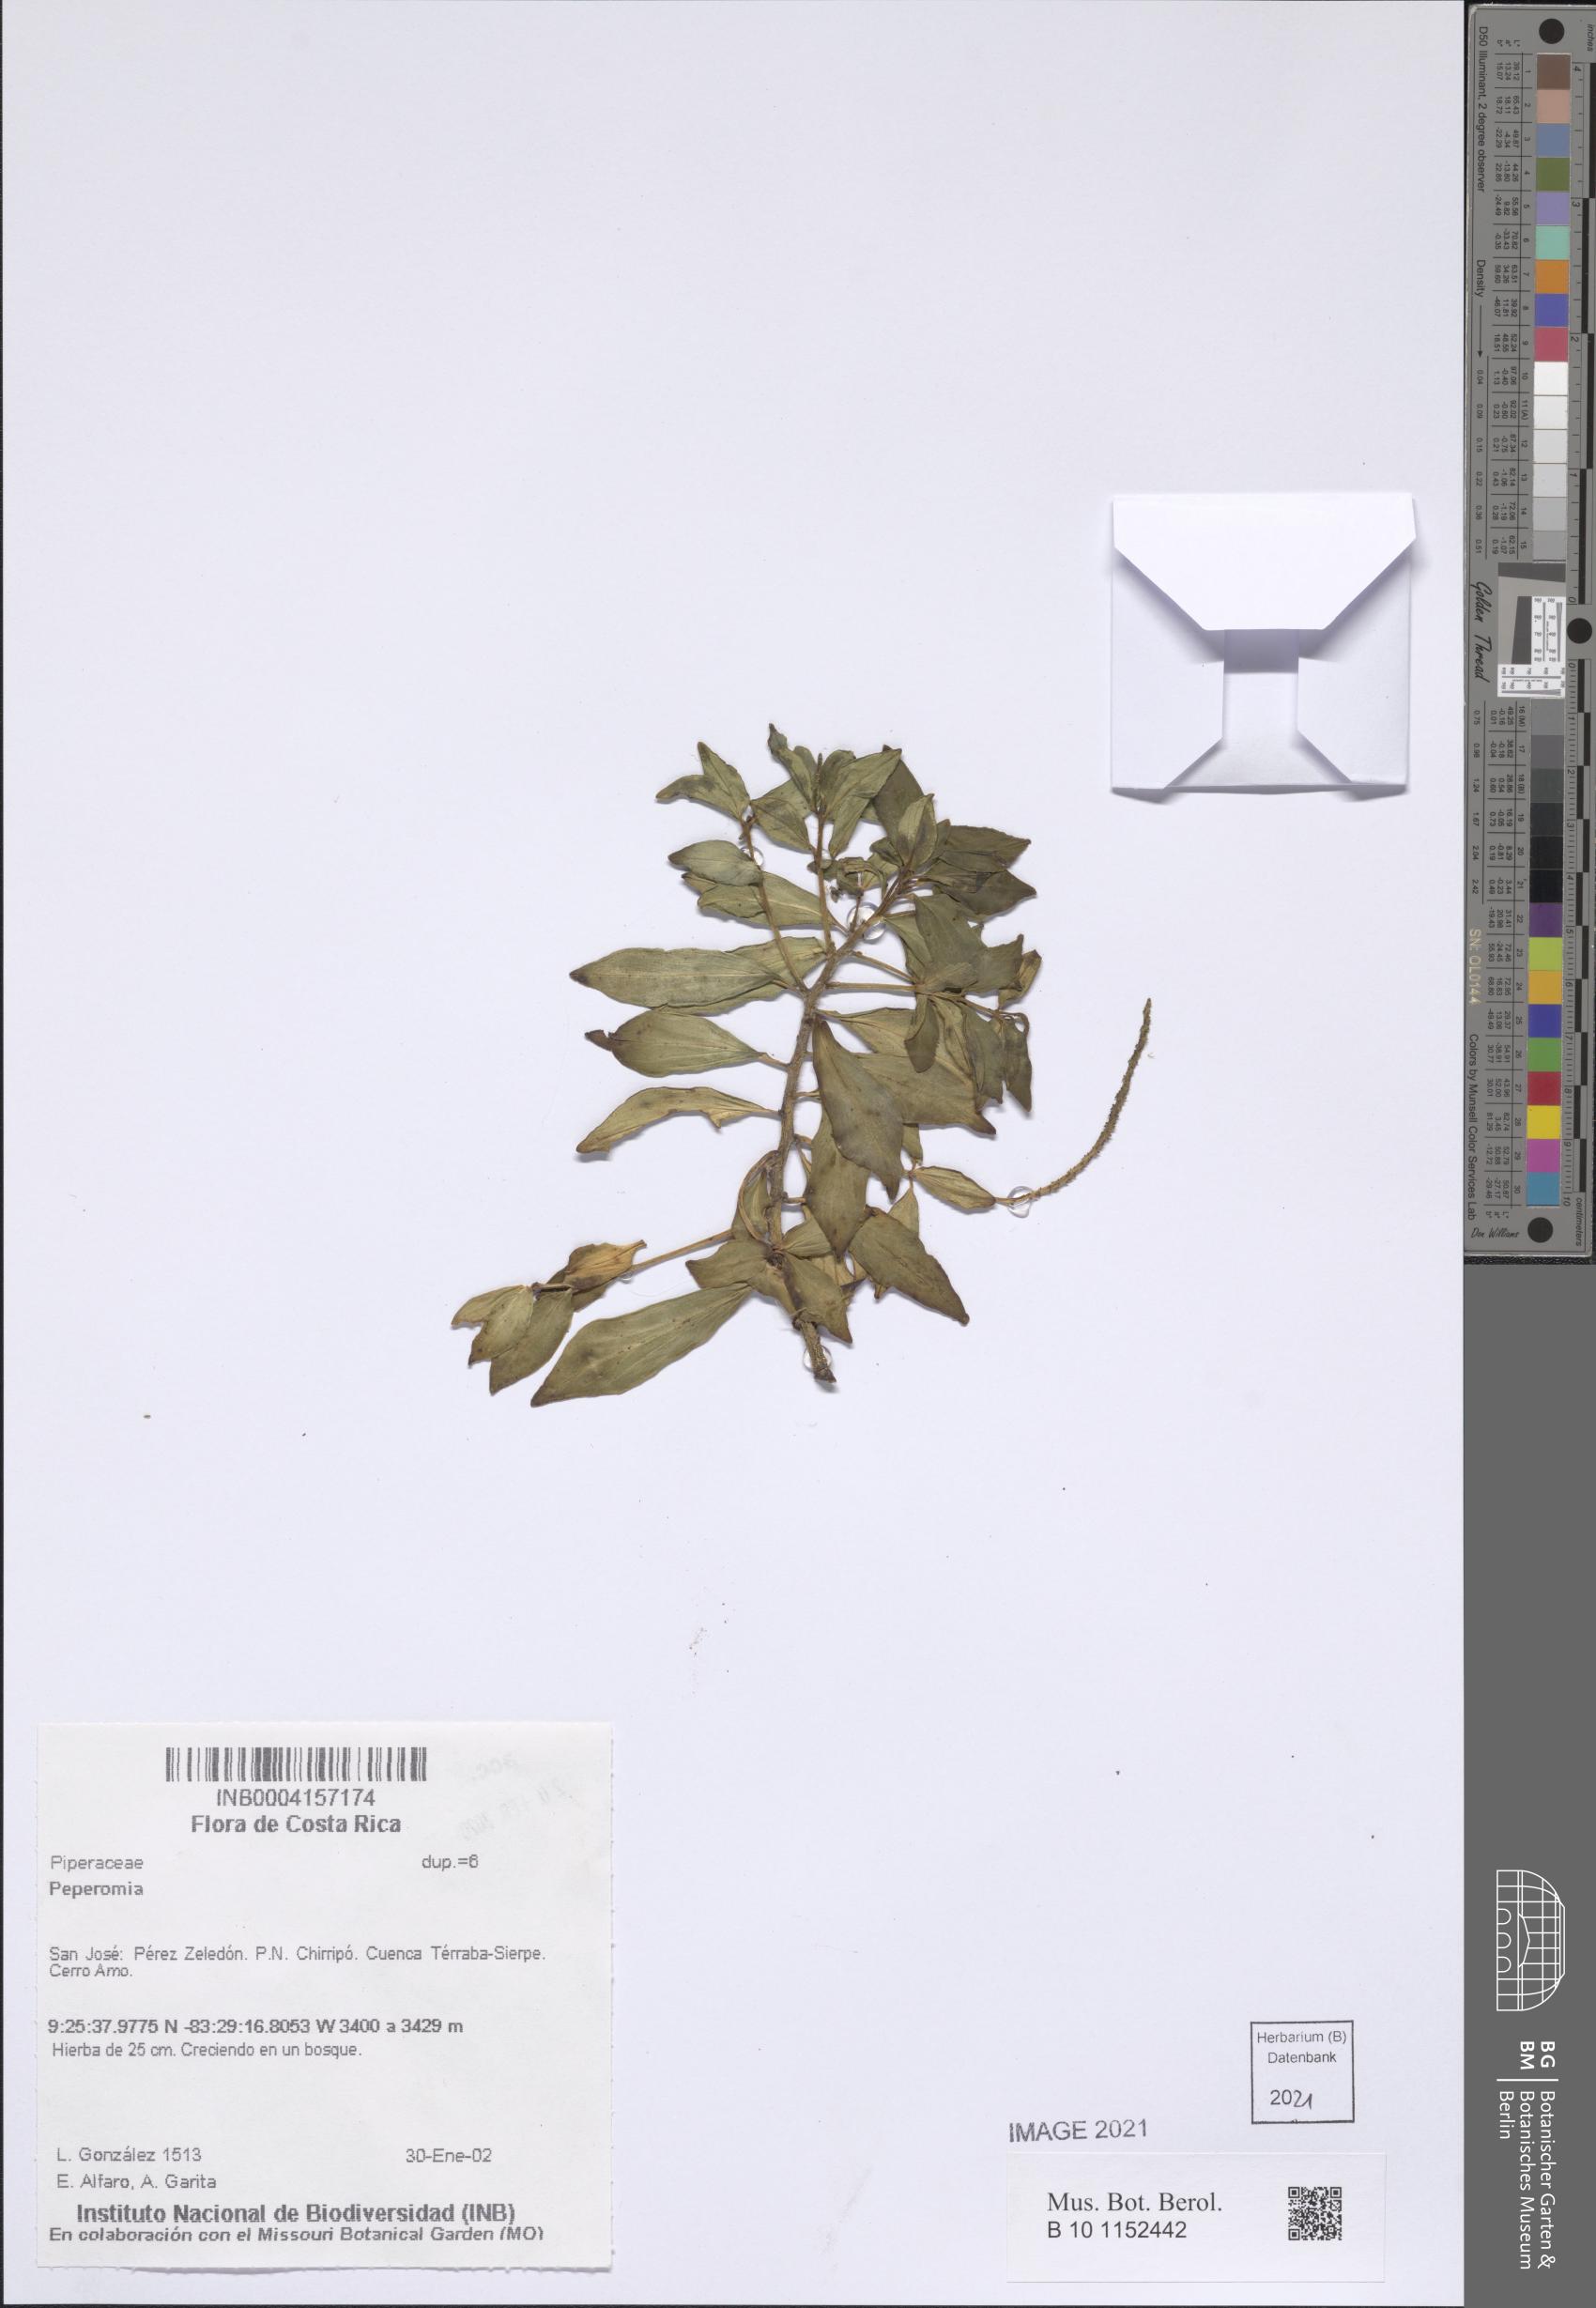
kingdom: Plantae
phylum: Tracheophyta
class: Magnoliopsida
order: Piperales
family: Piperaceae
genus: Peperomia
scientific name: Peperomia
